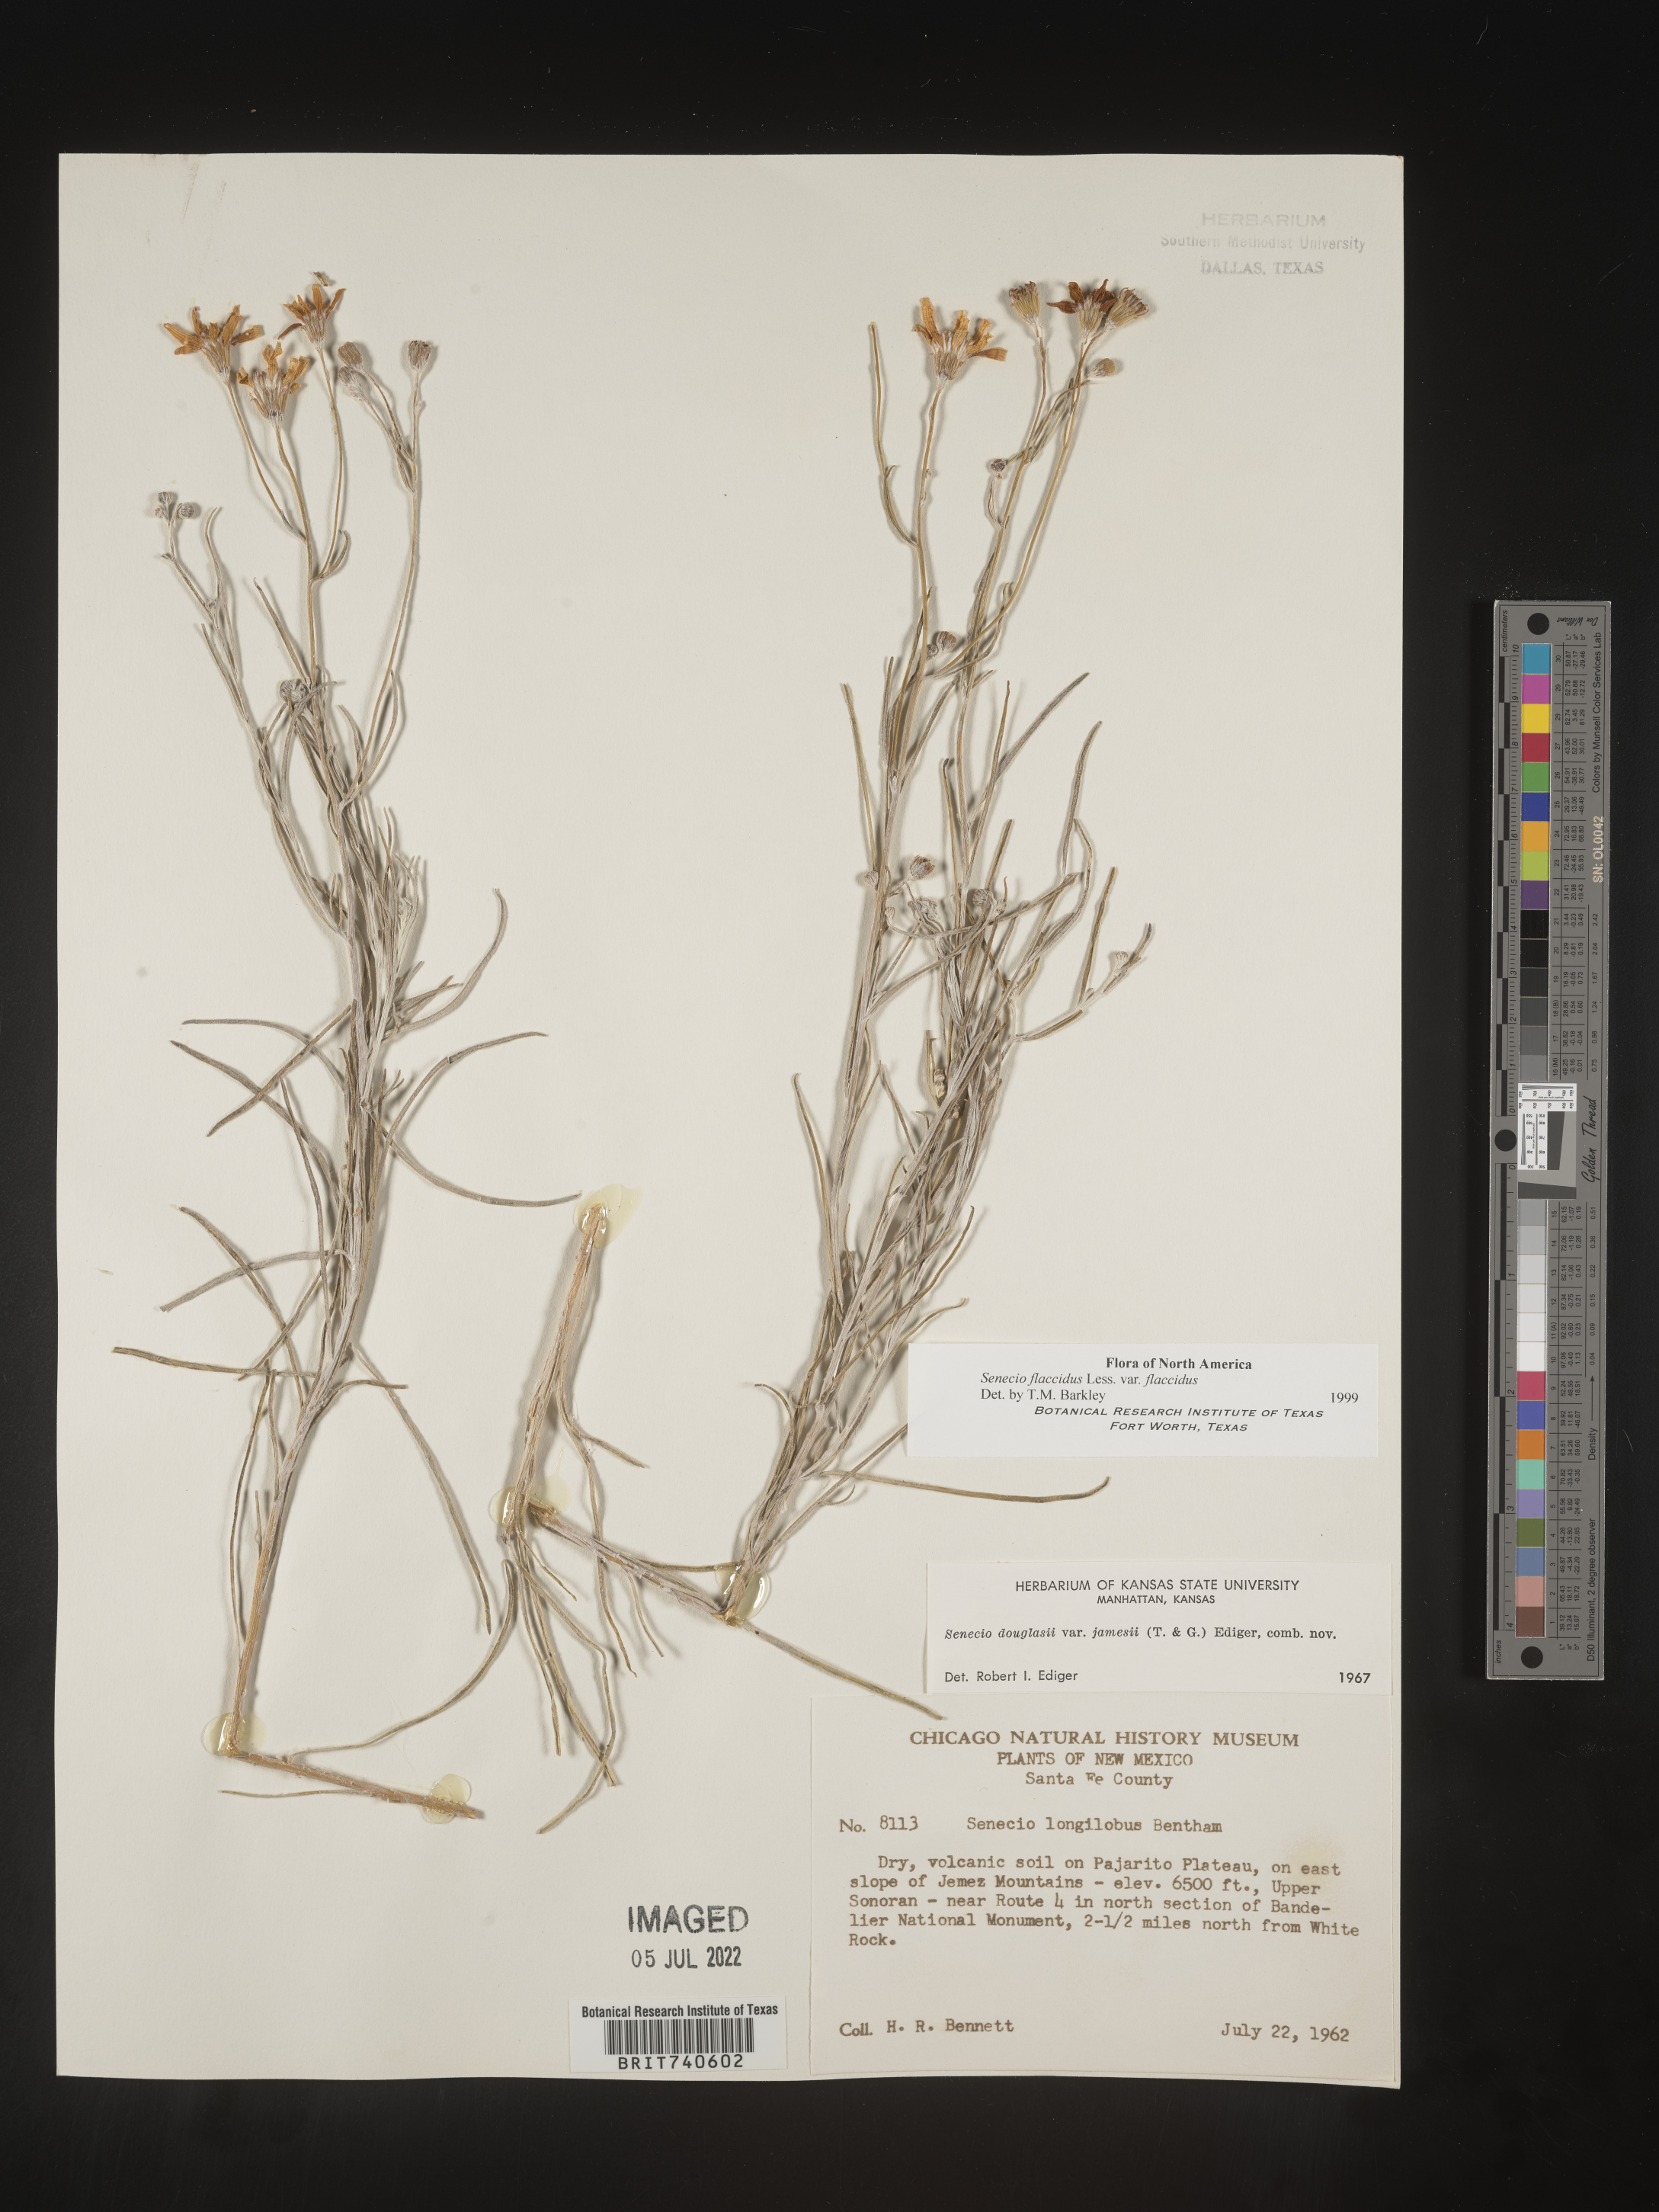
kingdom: Plantae
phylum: Tracheophyta
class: Magnoliopsida
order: Asterales
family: Asteraceae
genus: Senecio
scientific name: Senecio flaccidus
